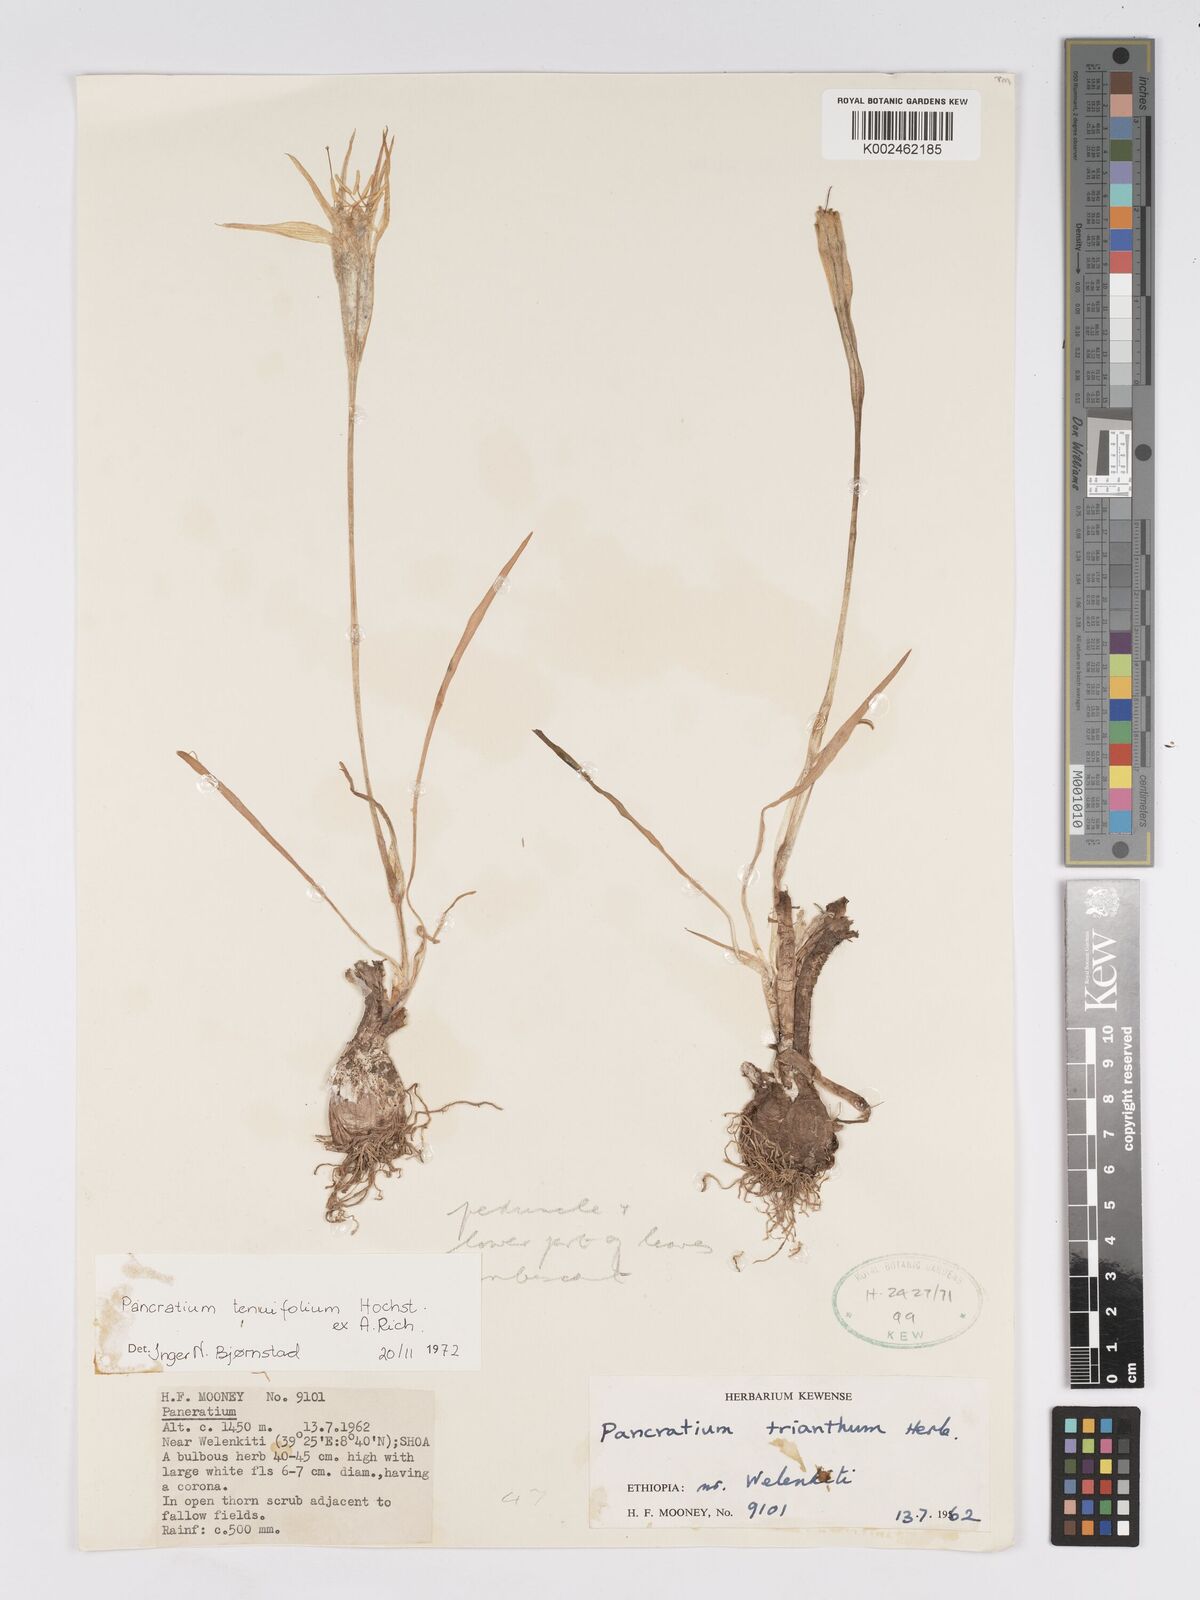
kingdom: Plantae
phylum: Tracheophyta
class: Liliopsida
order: Asparagales
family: Amaryllidaceae
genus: Pancratium
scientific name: Pancratium tenuifolium
